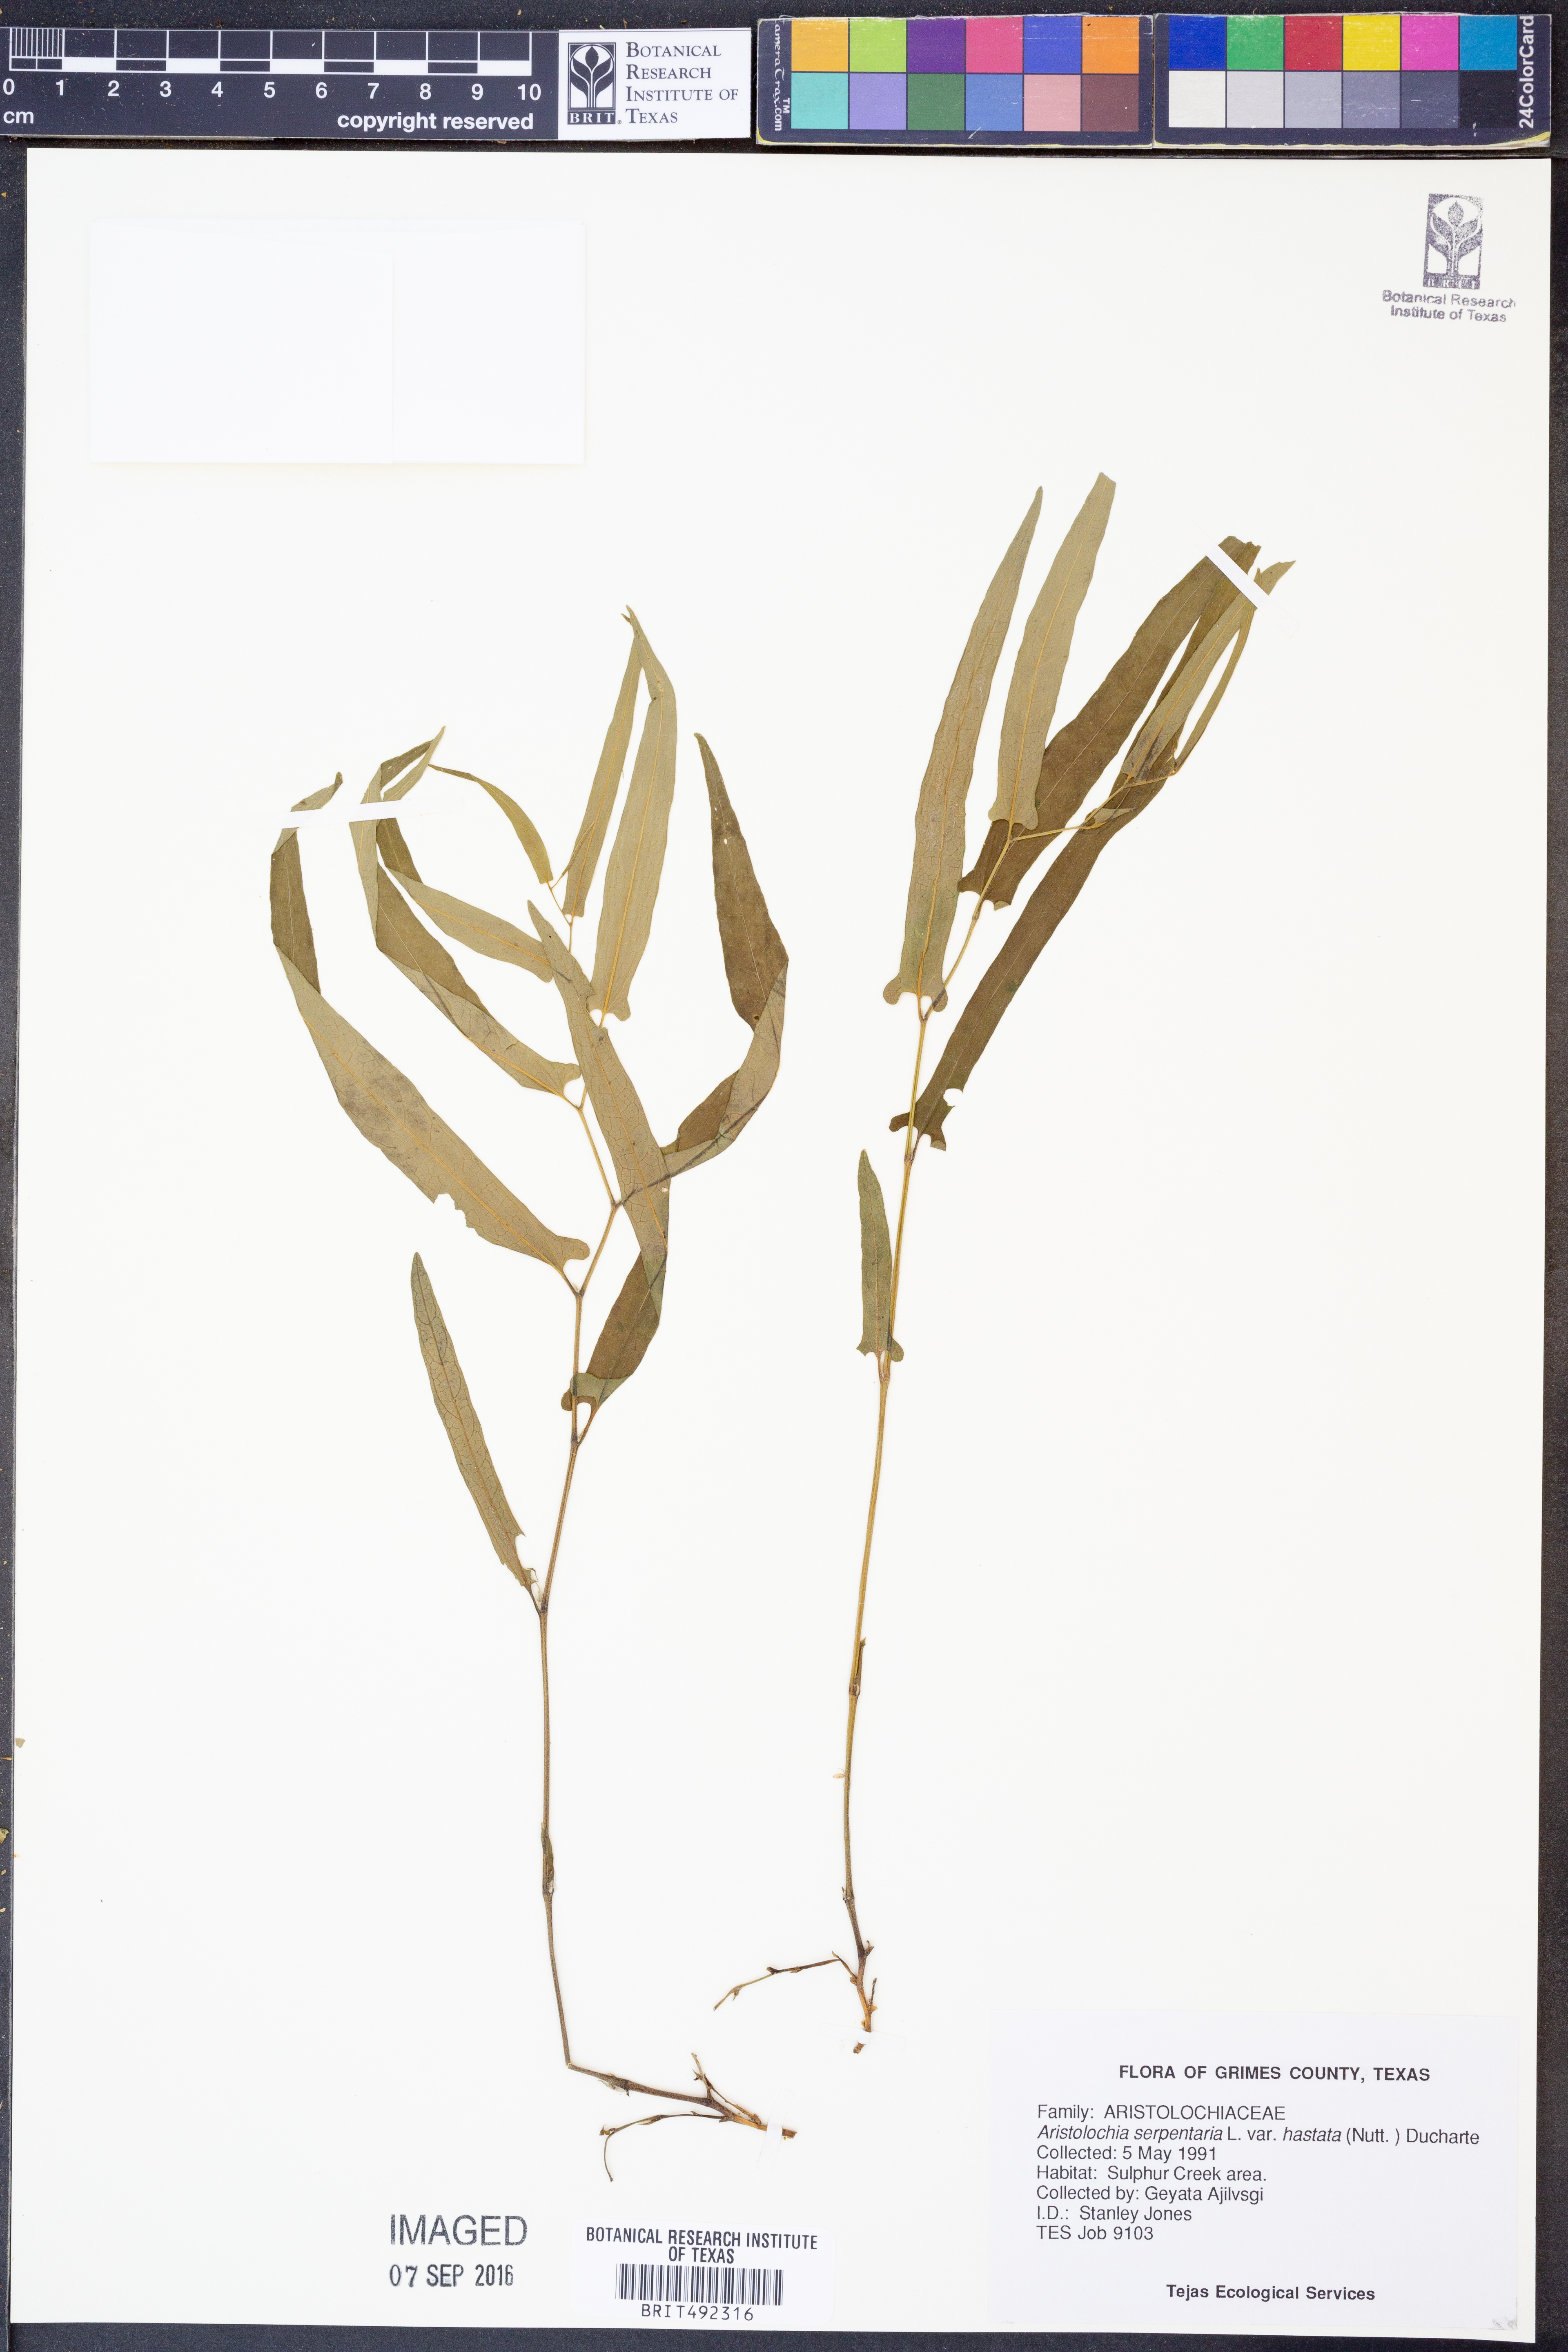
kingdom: Plantae
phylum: Tracheophyta
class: Magnoliopsida
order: Piperales
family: Aristolochiaceae
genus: Endodeca
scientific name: Endodeca serpentaria
